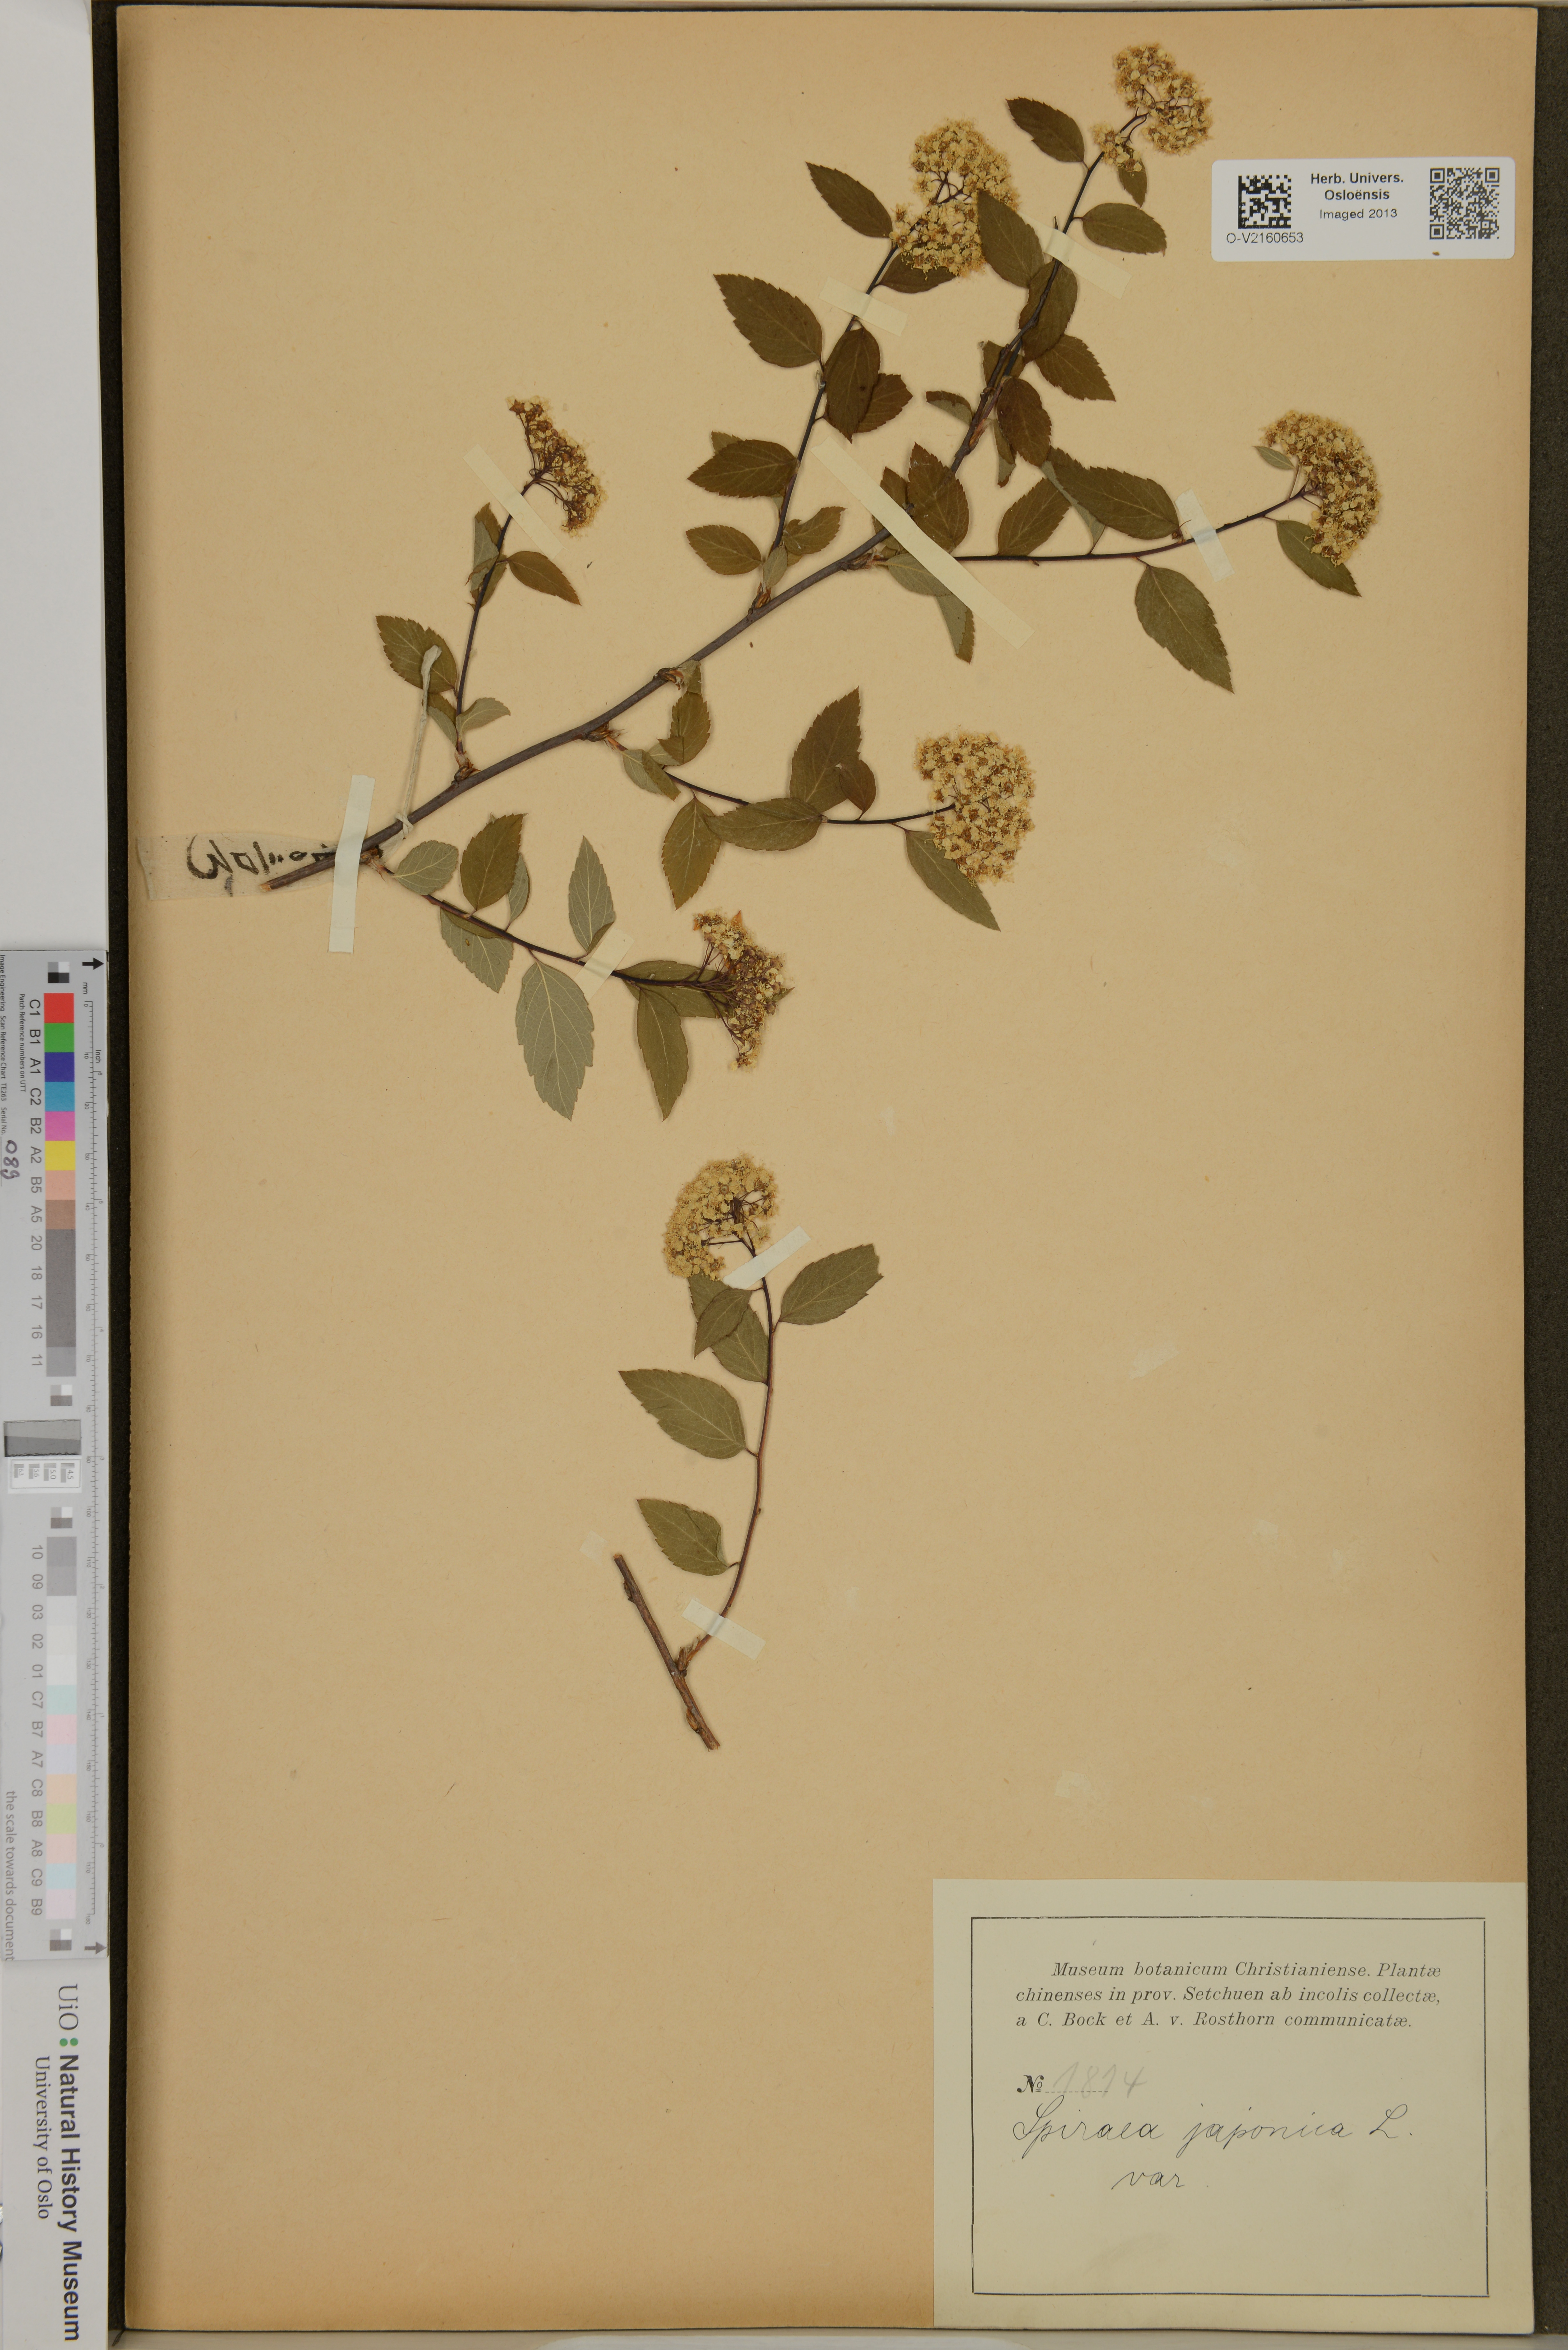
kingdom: Plantae
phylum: Tracheophyta
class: Magnoliopsida
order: Rosales
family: Rosaceae
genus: Spiraea
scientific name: Spiraea japonica
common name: Japanese spiraea
